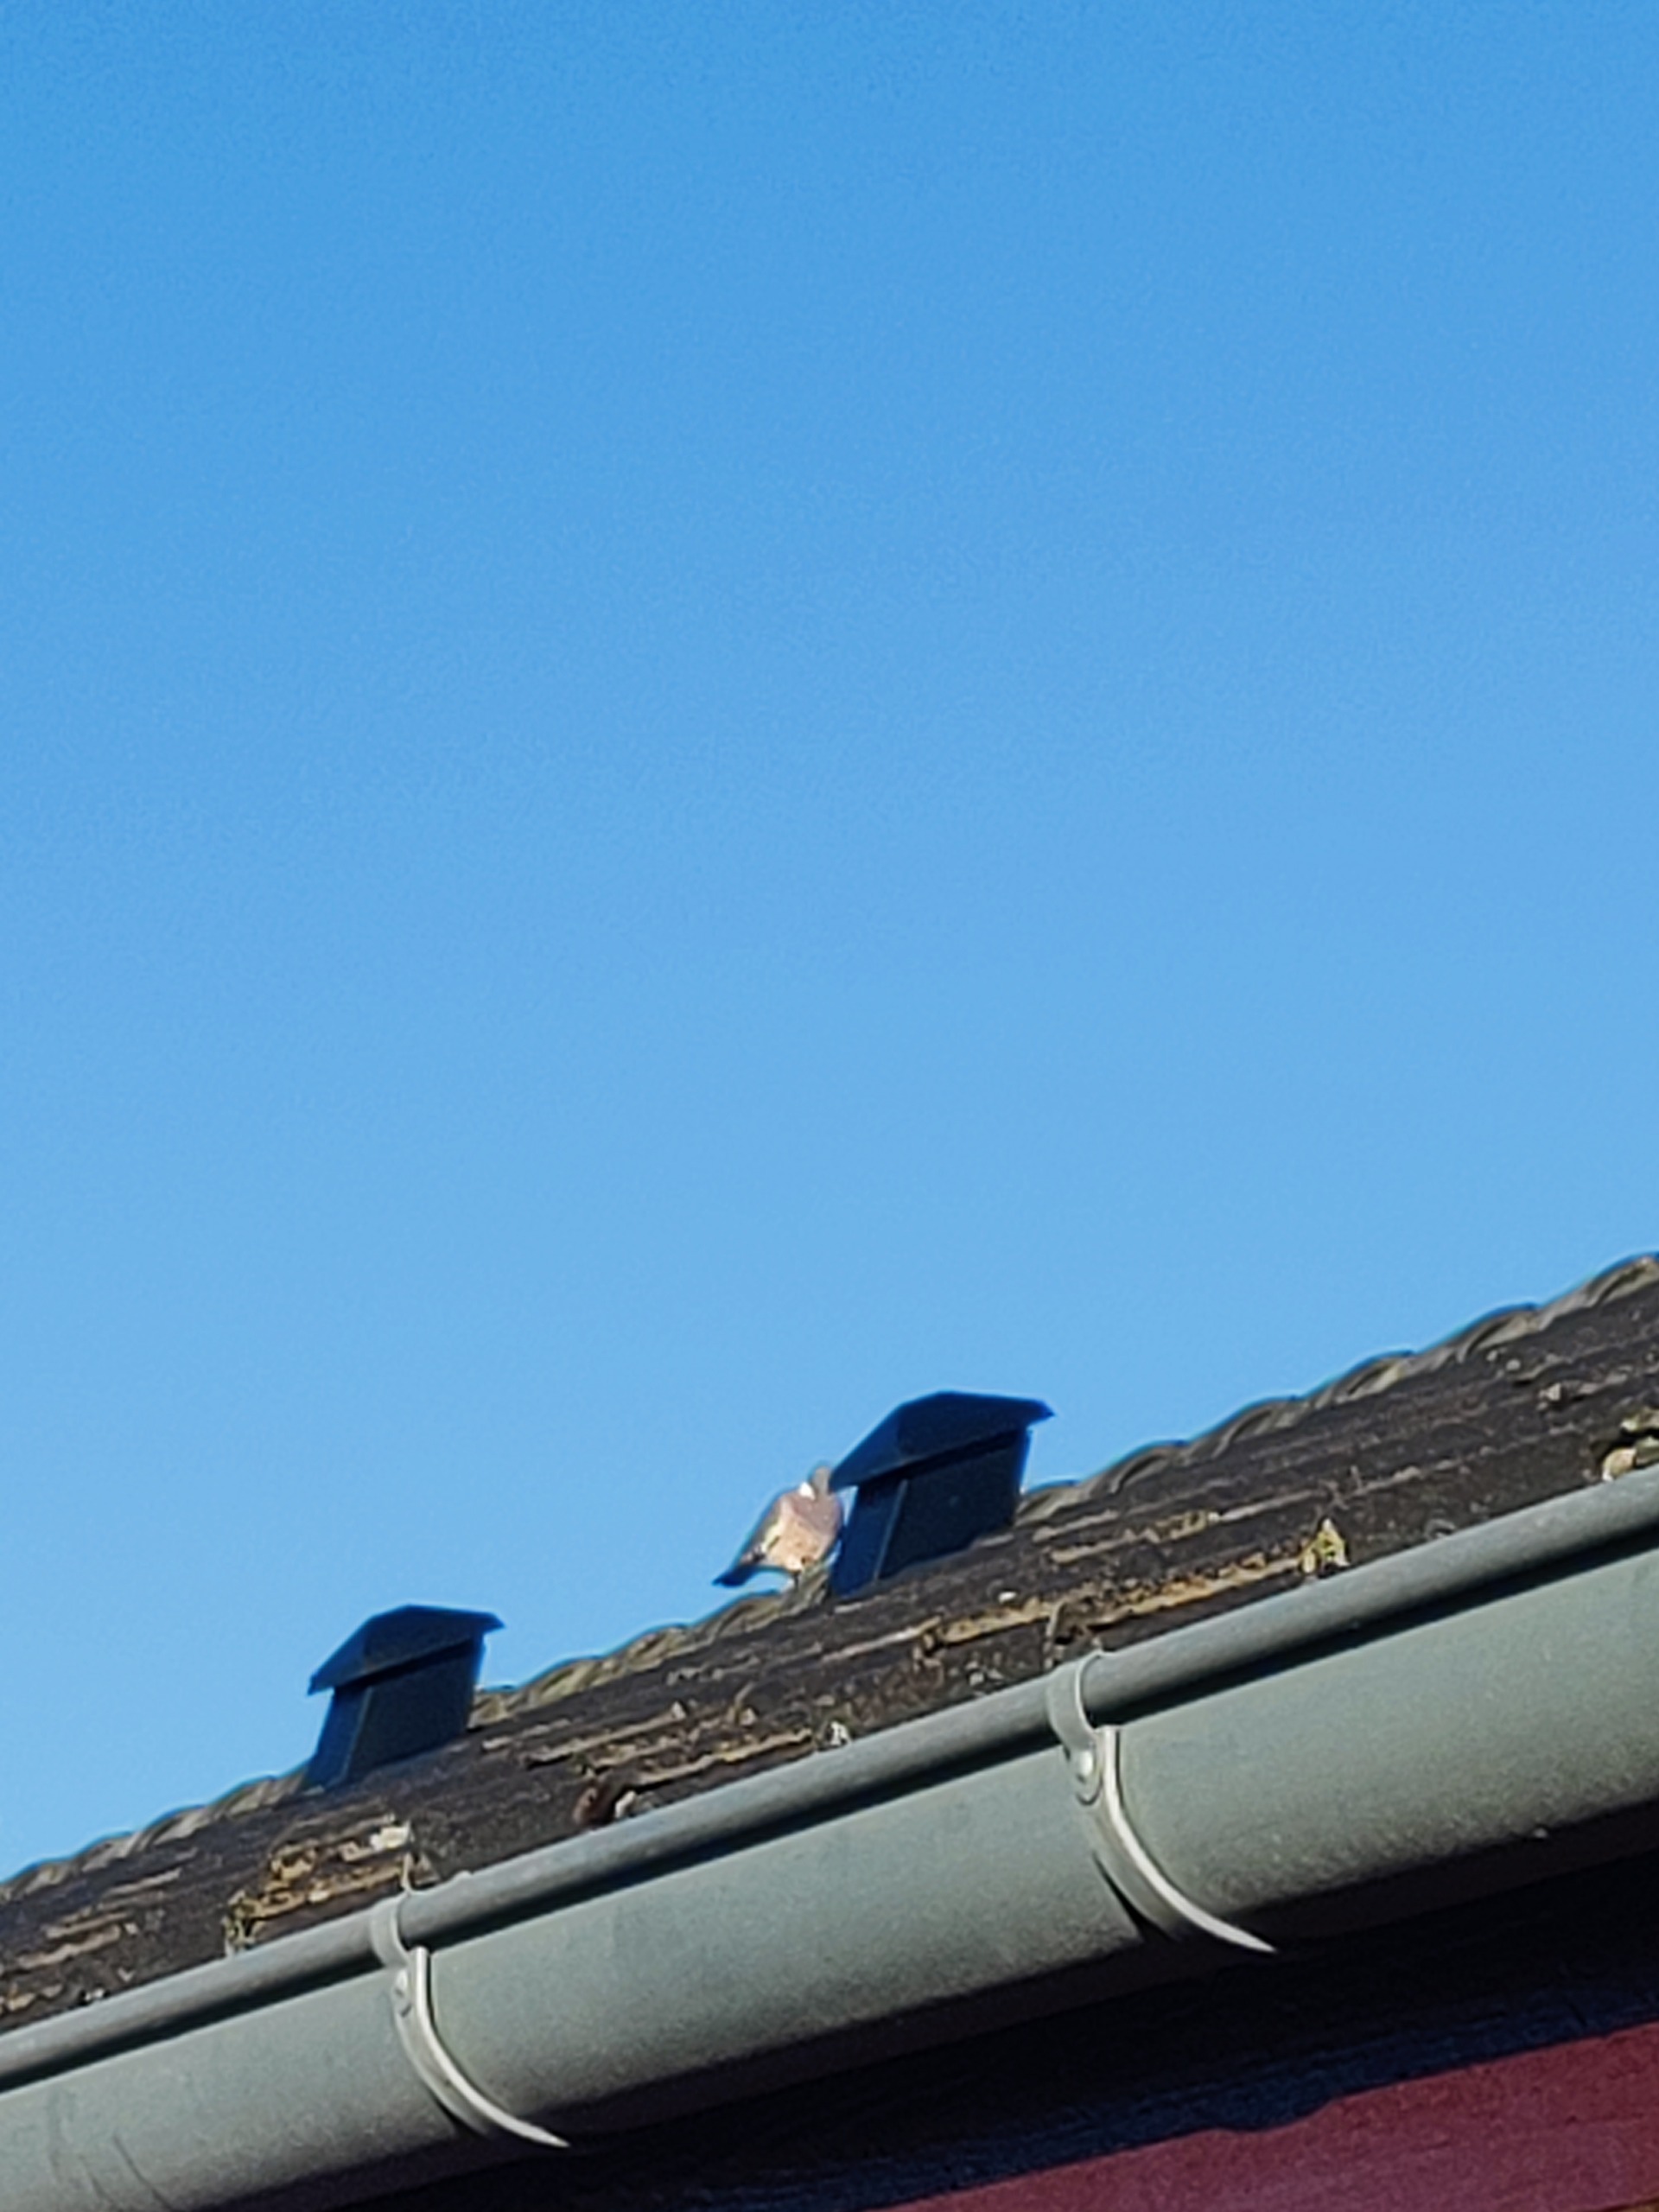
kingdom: Animalia
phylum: Chordata
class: Aves
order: Columbiformes
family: Columbidae
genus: Columba
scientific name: Columba palumbus
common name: Ringdue
